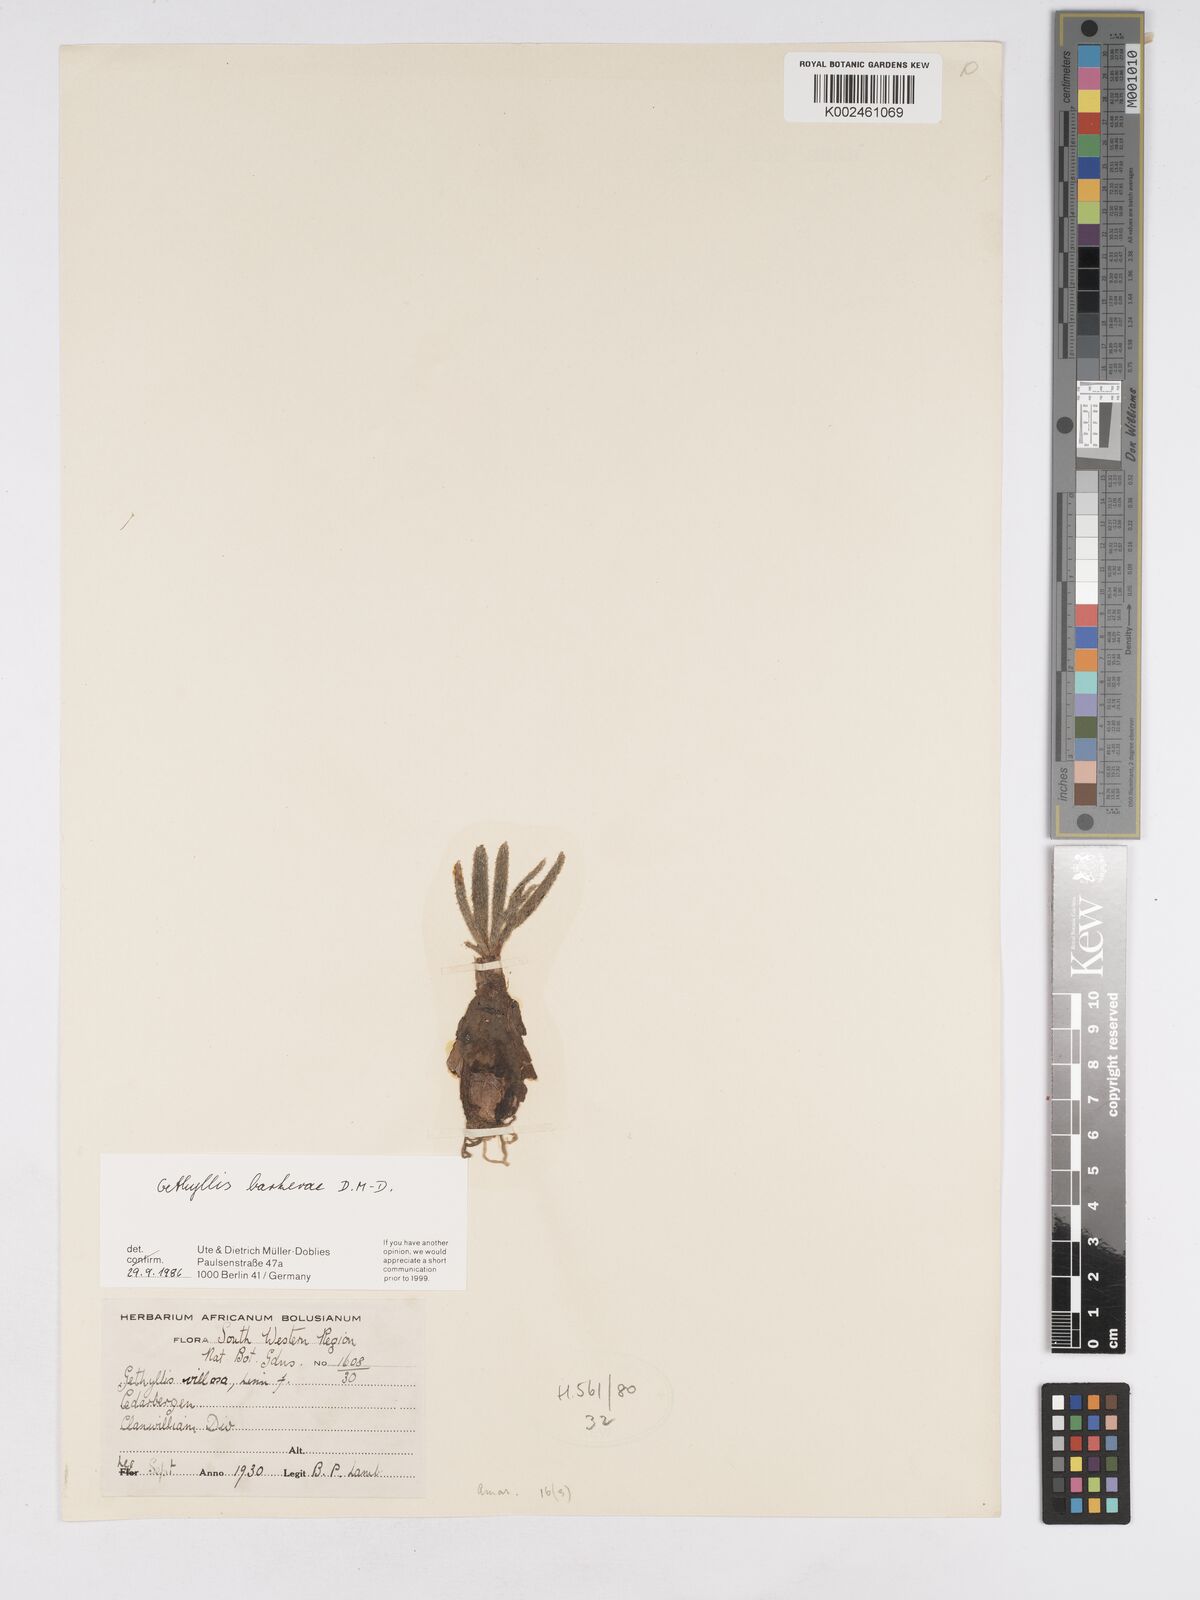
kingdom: Plantae
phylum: Tracheophyta
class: Liliopsida
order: Asparagales
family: Amaryllidaceae
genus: Gethyllis
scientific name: Gethyllis barkerae
